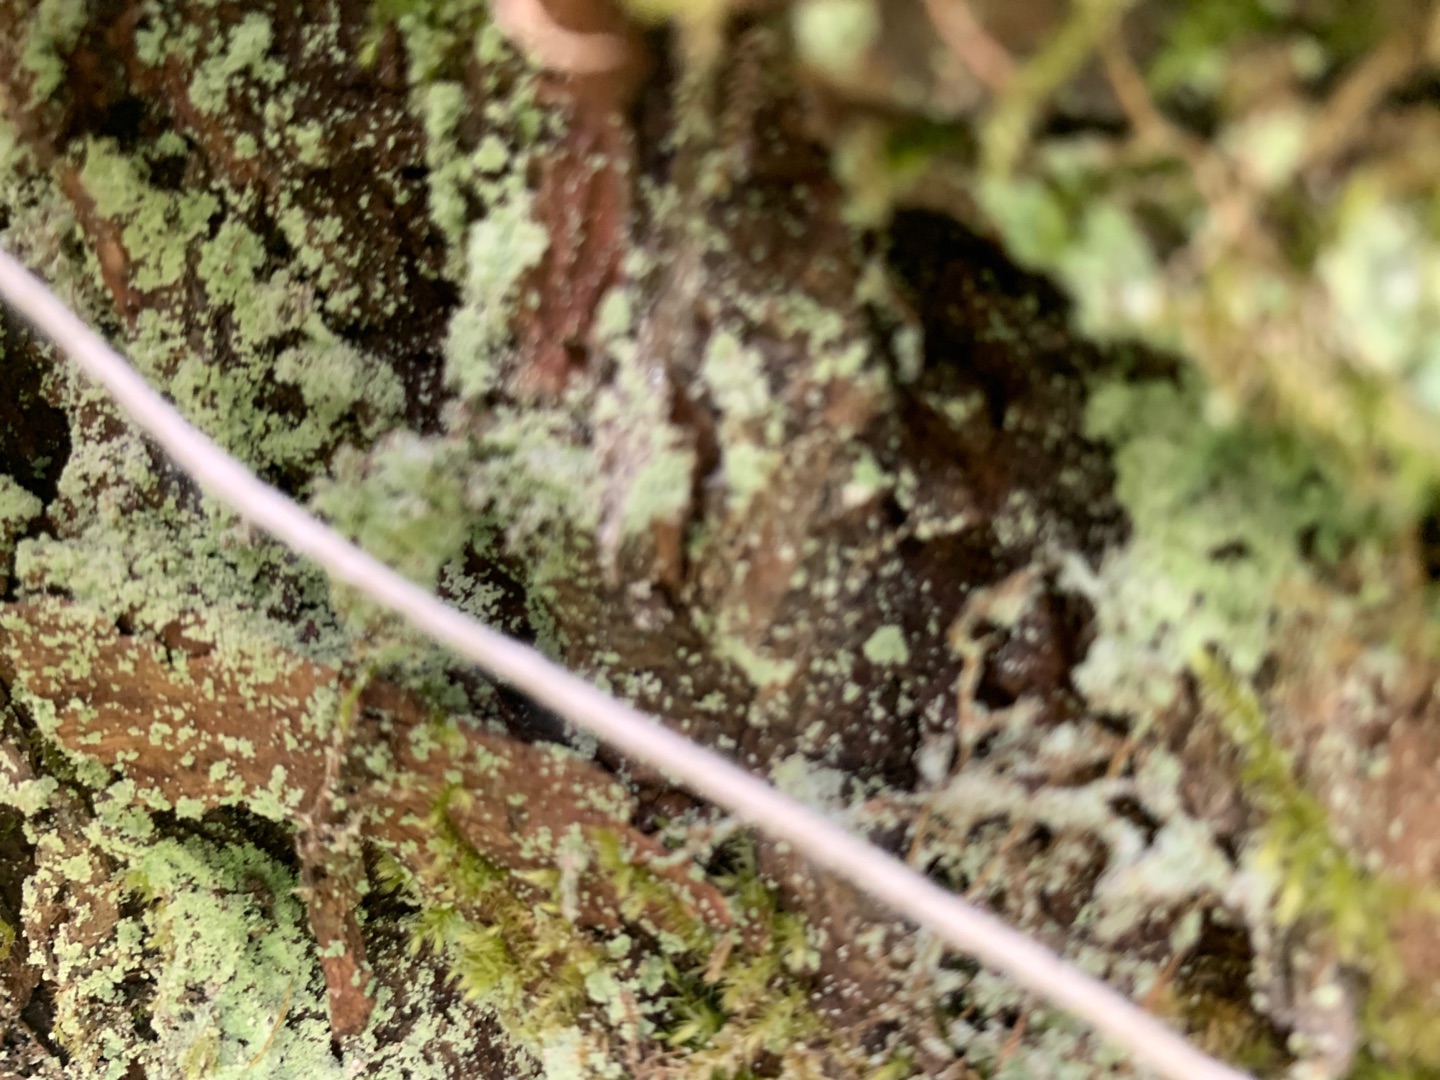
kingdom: Fungi
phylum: Ascomycota
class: Lecanoromycetes
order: Lecanorales
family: Stereocaulaceae
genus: Lepraria
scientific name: Lepraria
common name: Støvlav
